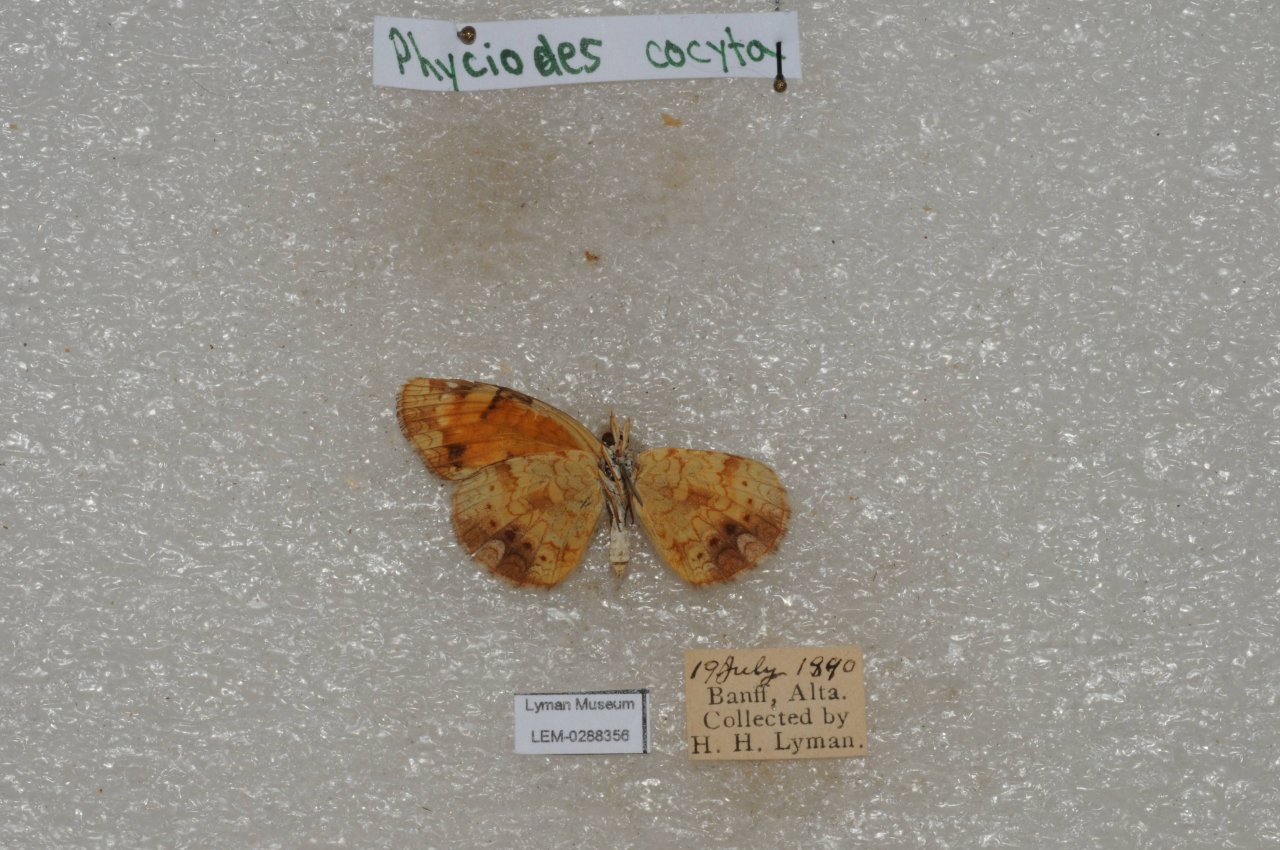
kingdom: Animalia
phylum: Arthropoda
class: Insecta
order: Lepidoptera
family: Nymphalidae
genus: Phyciodes
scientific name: Phyciodes tharos
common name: Northern Crescent
